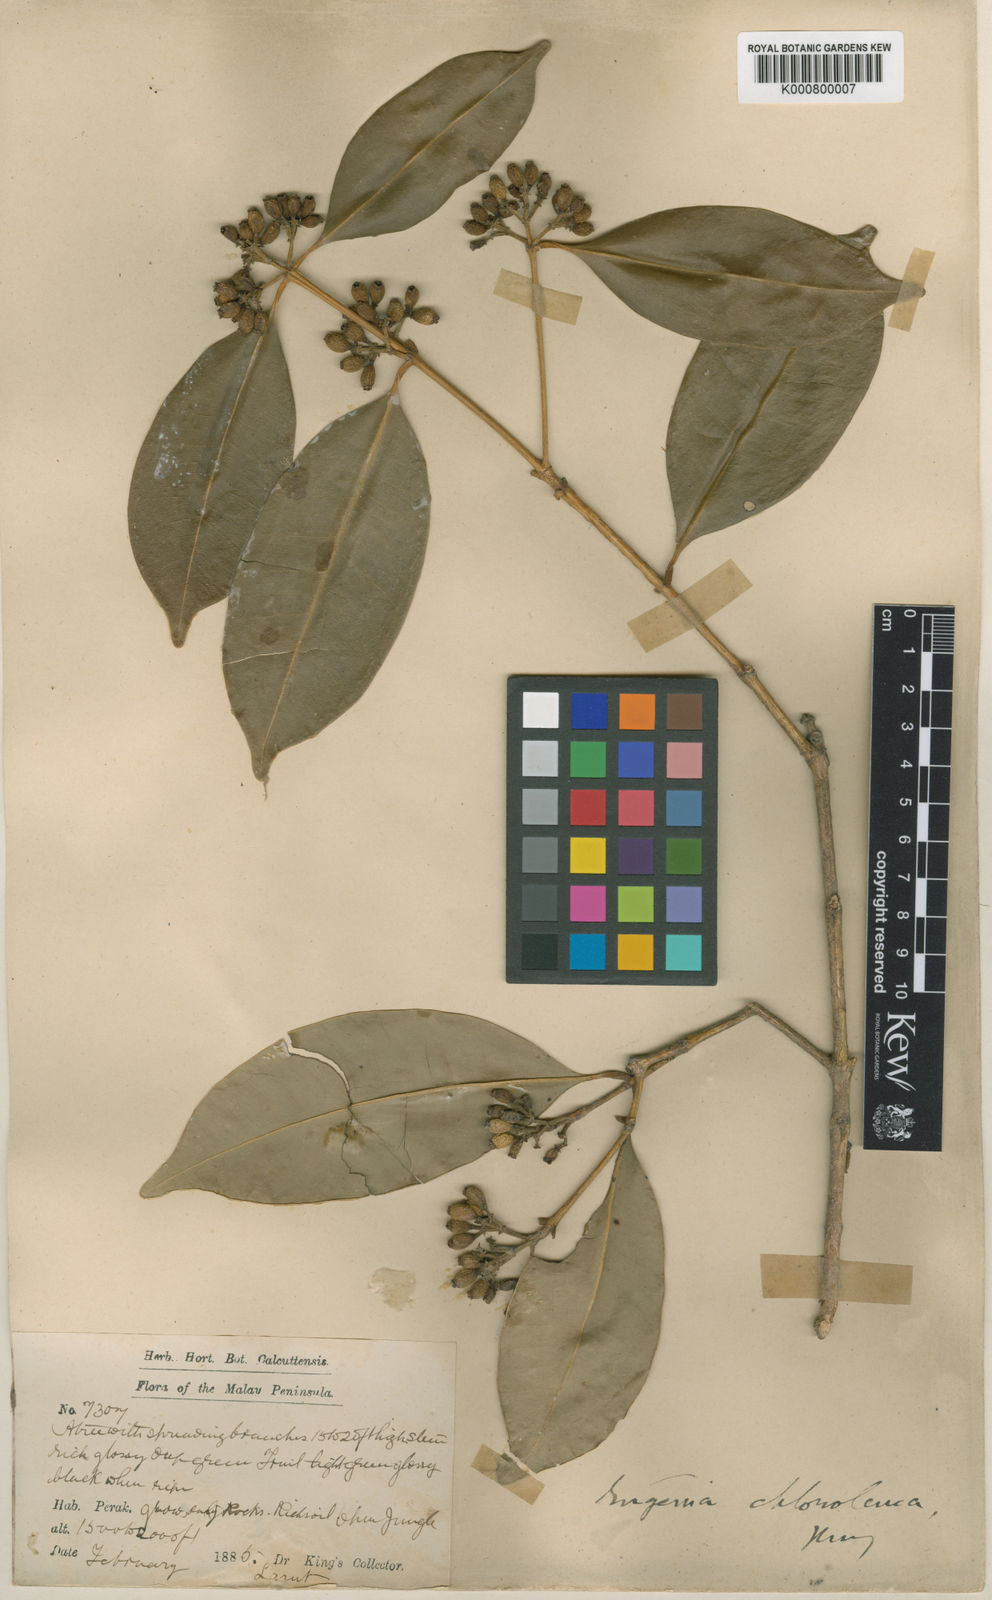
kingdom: Plantae
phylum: Tracheophyta
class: Magnoliopsida
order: Myrtales
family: Myrtaceae
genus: Syzygium
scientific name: Syzygium chloroleucum
